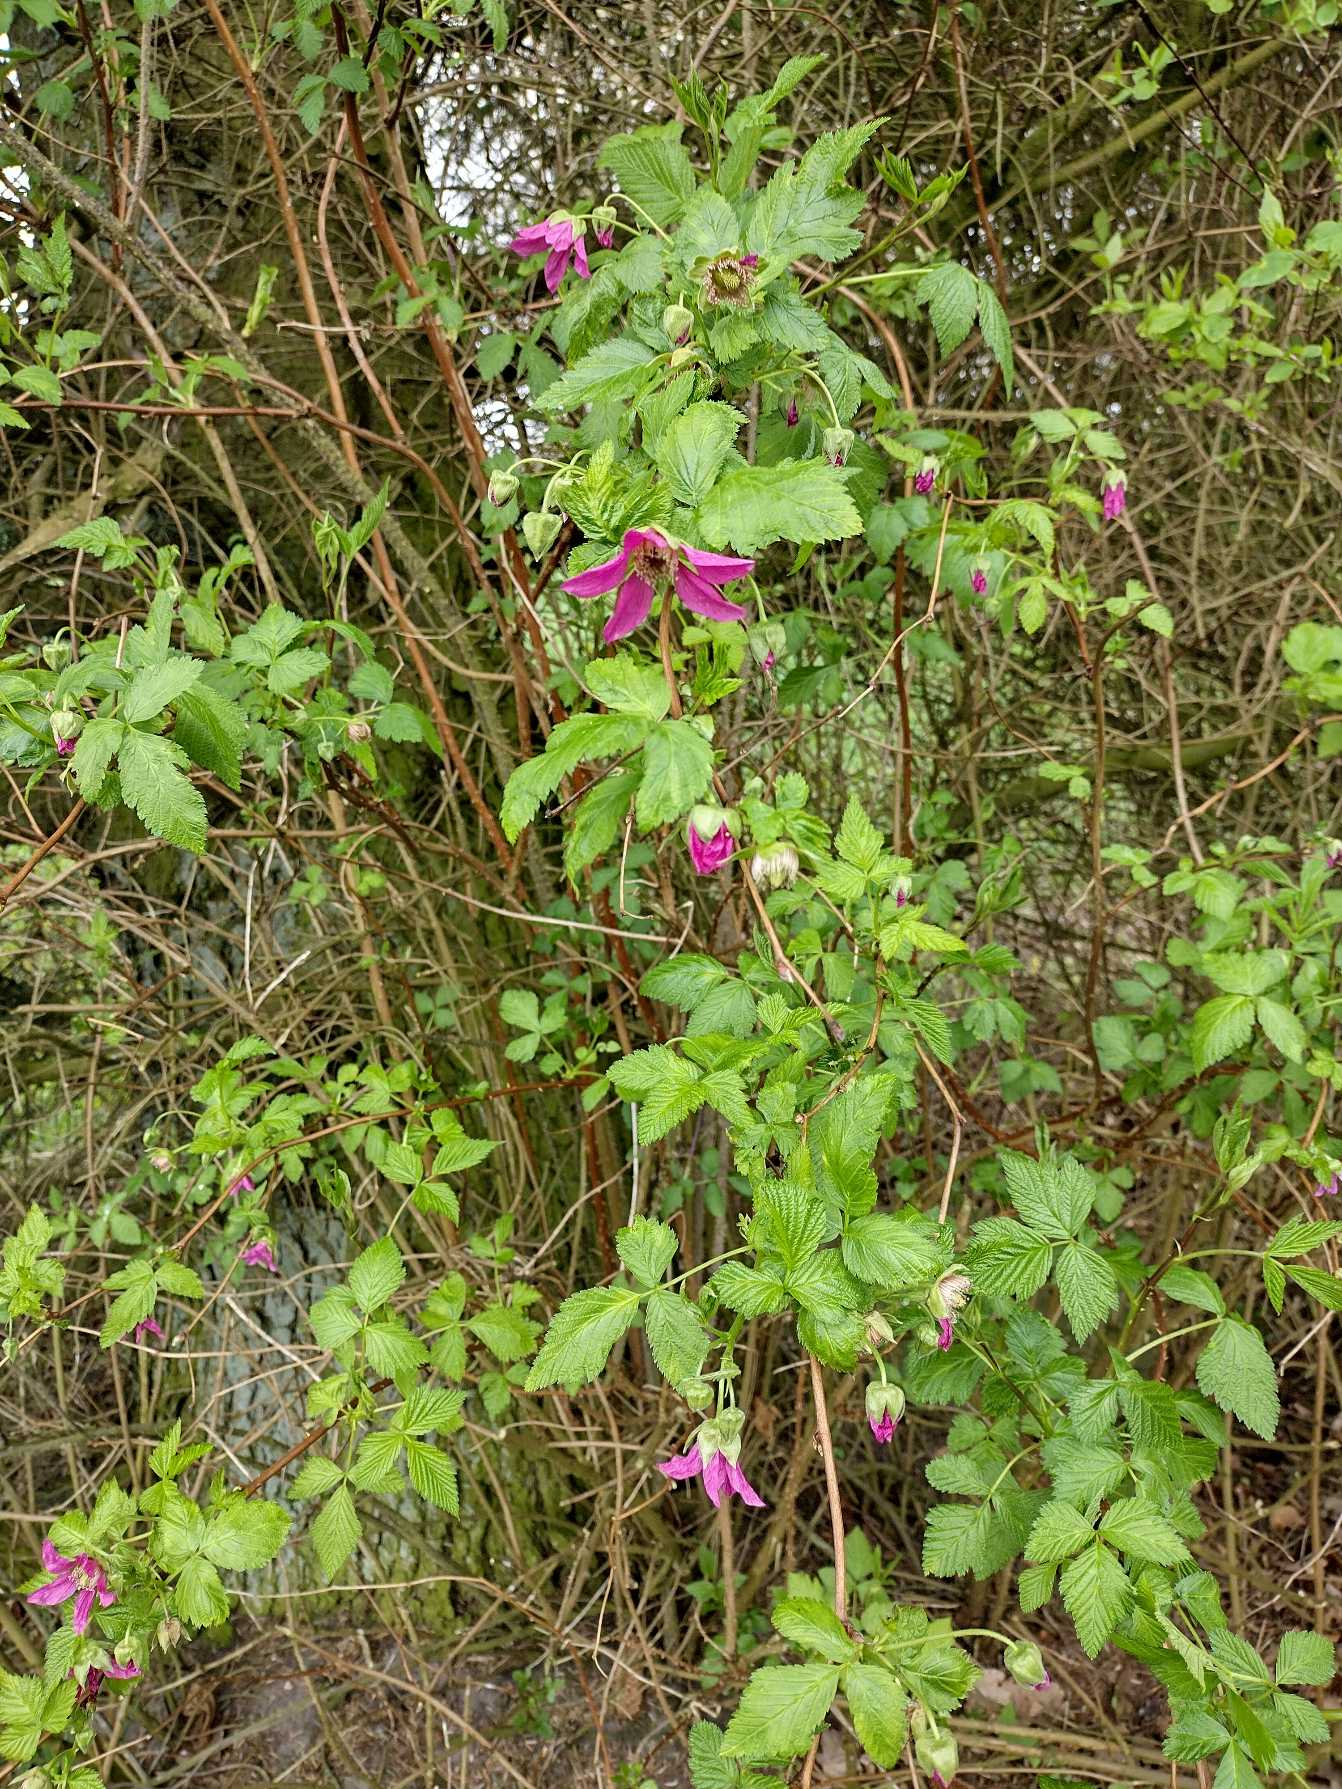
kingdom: Plantae
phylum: Tracheophyta
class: Magnoliopsida
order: Rosales
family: Rosaceae
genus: Rubus
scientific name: Rubus spectabilis
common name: Laksebær
